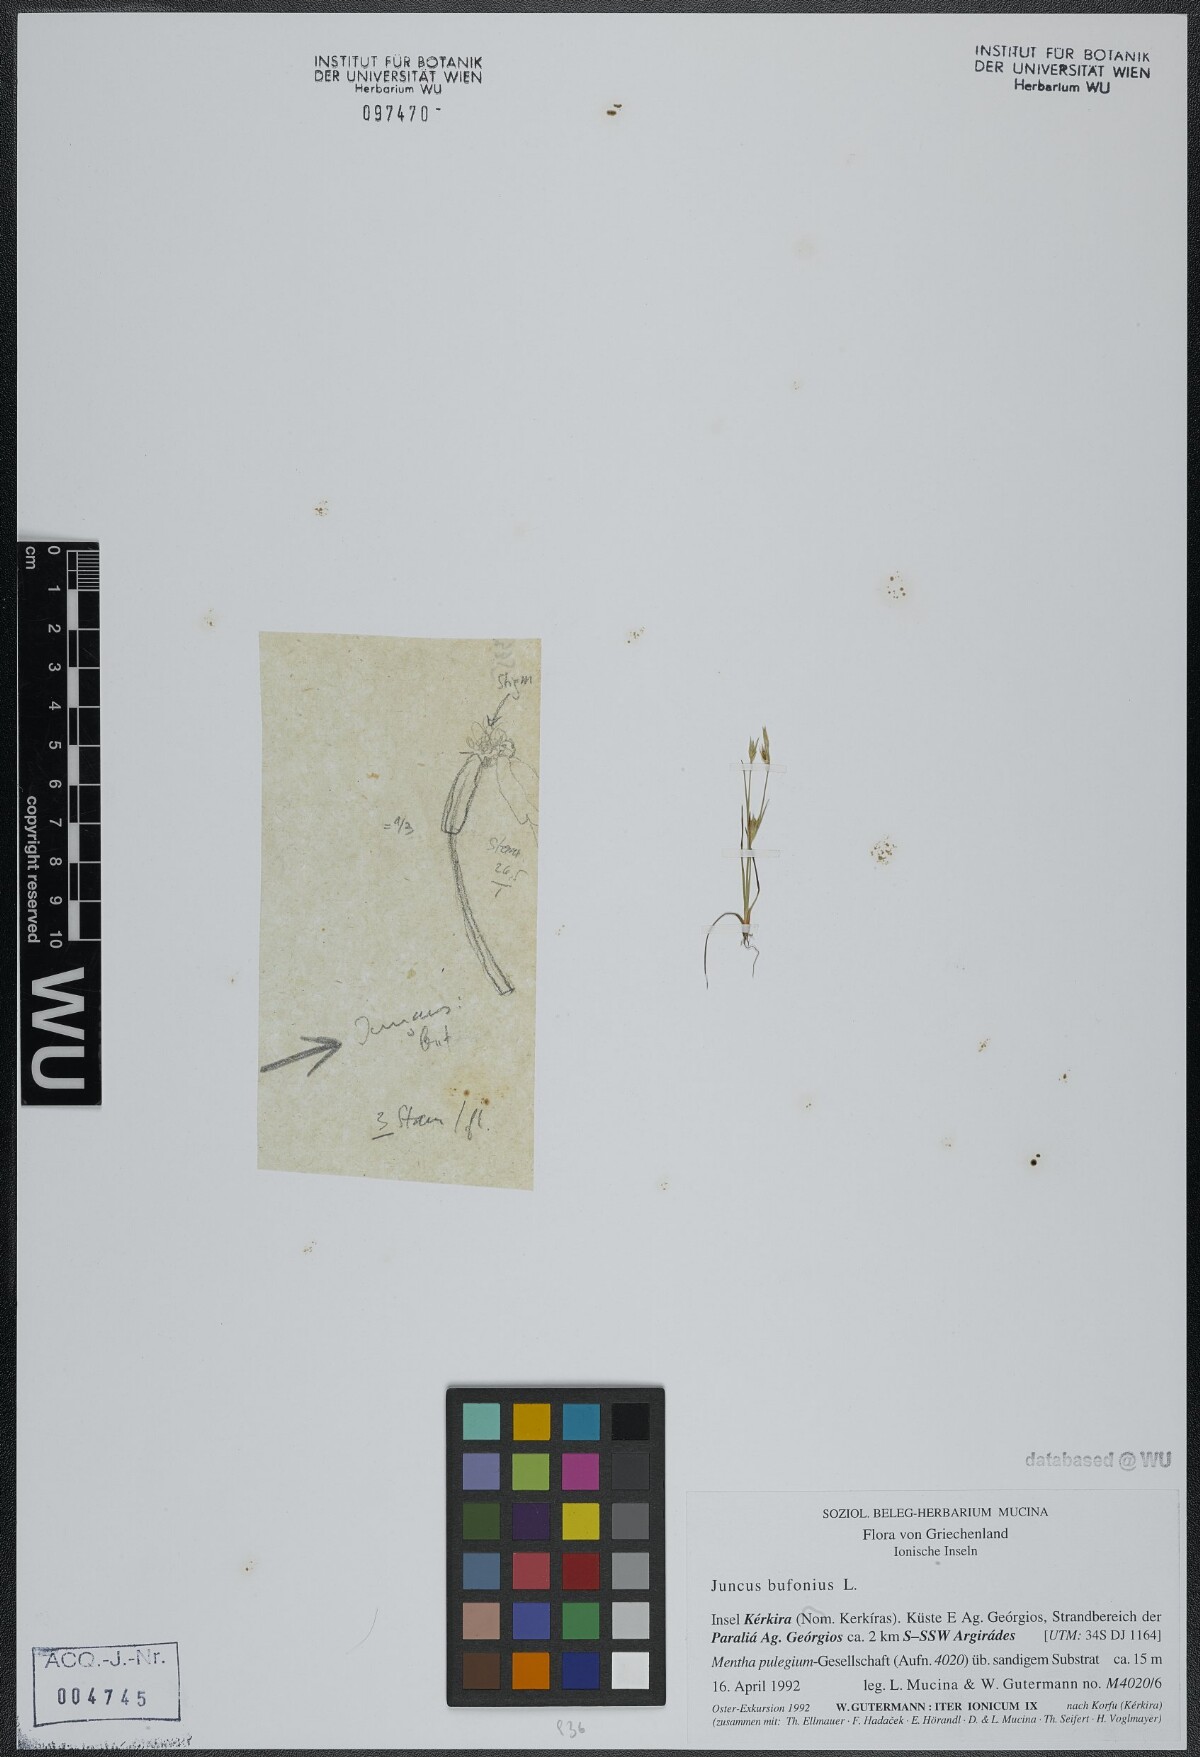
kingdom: Plantae
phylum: Tracheophyta
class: Liliopsida
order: Poales
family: Juncaceae
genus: Juncus
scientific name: Juncus bufonius
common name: Toad rush
